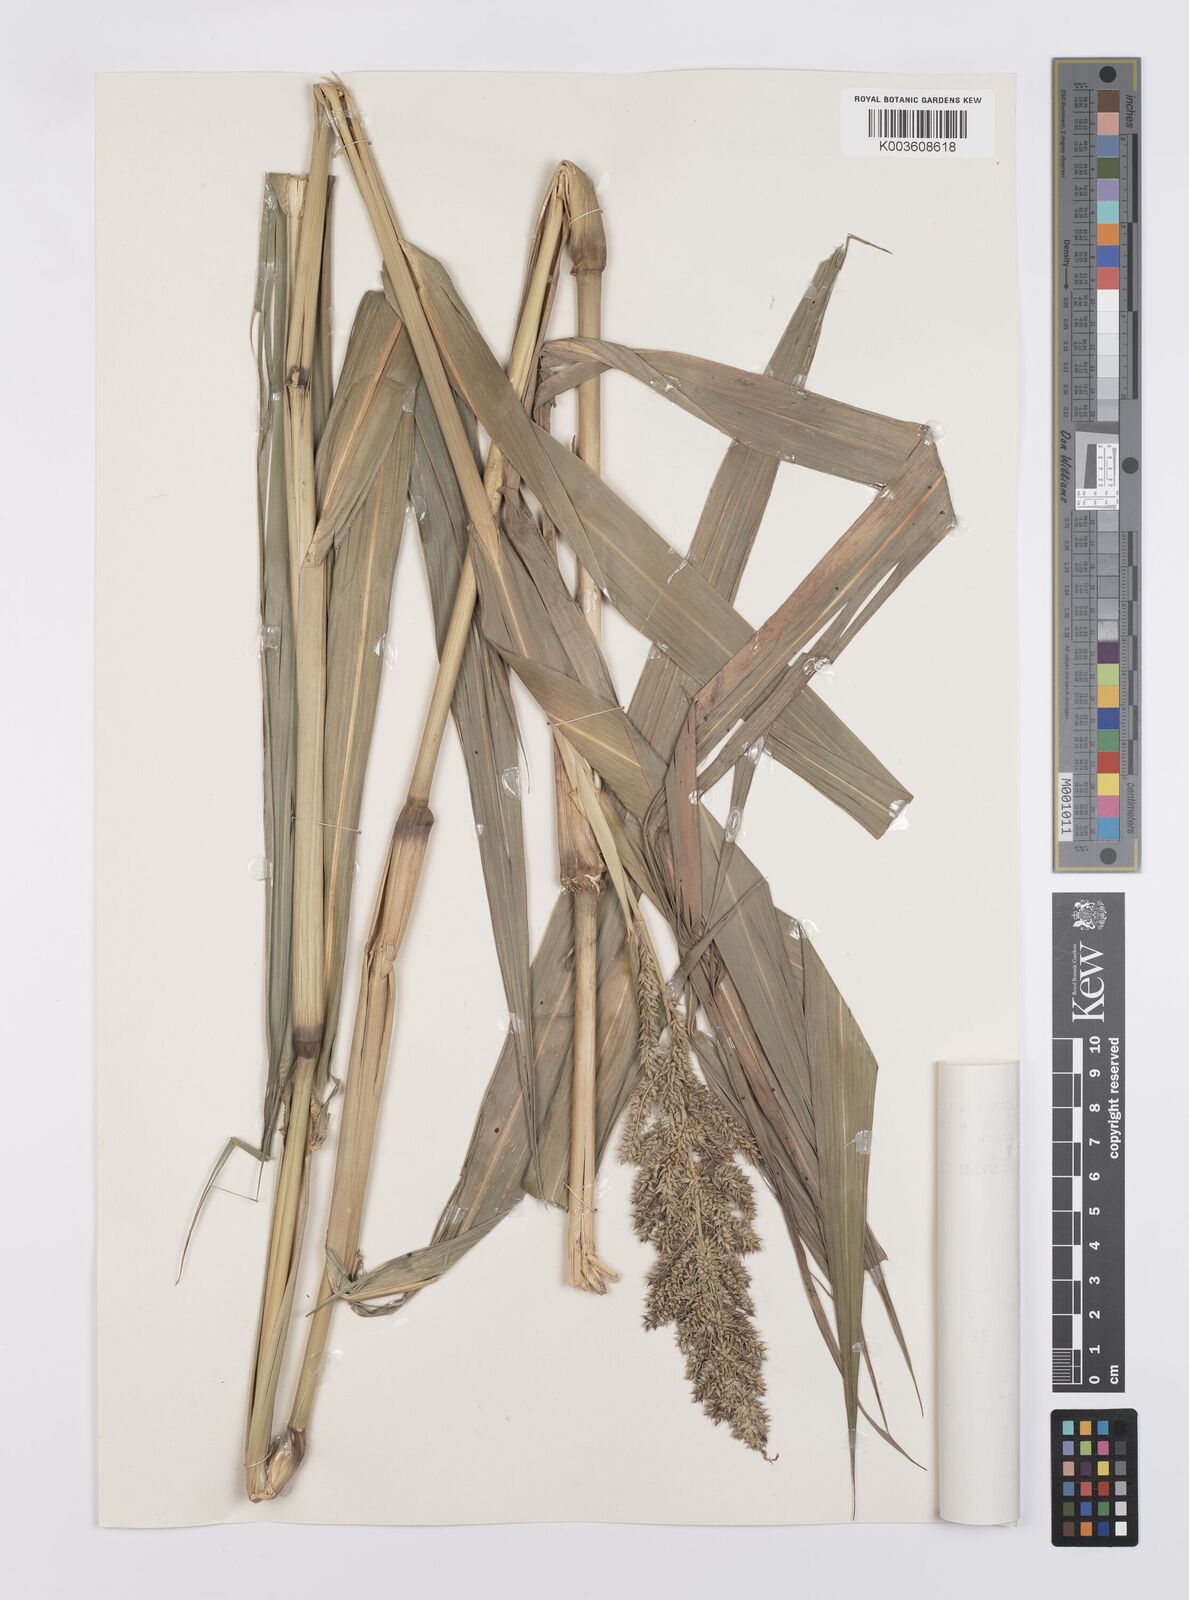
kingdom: Plantae
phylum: Tracheophyta
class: Liliopsida
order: Poales
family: Poaceae
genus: Echinochloa
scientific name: Echinochloa crus-pavonis
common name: Gulf cockspur grass
